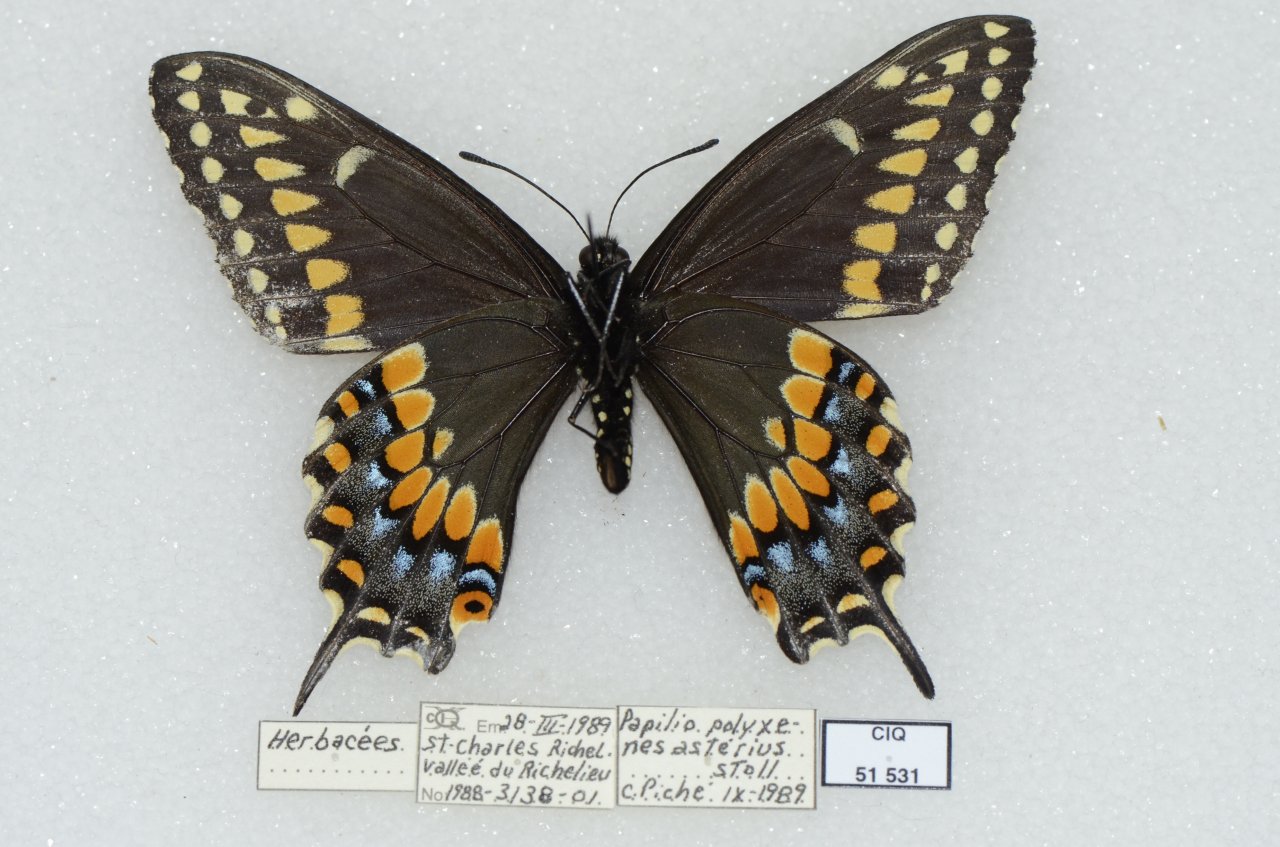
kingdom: Animalia
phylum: Arthropoda
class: Insecta
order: Lepidoptera
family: Papilionidae
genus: Papilio
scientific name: Papilio polyxenes
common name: Black Swallowtail
